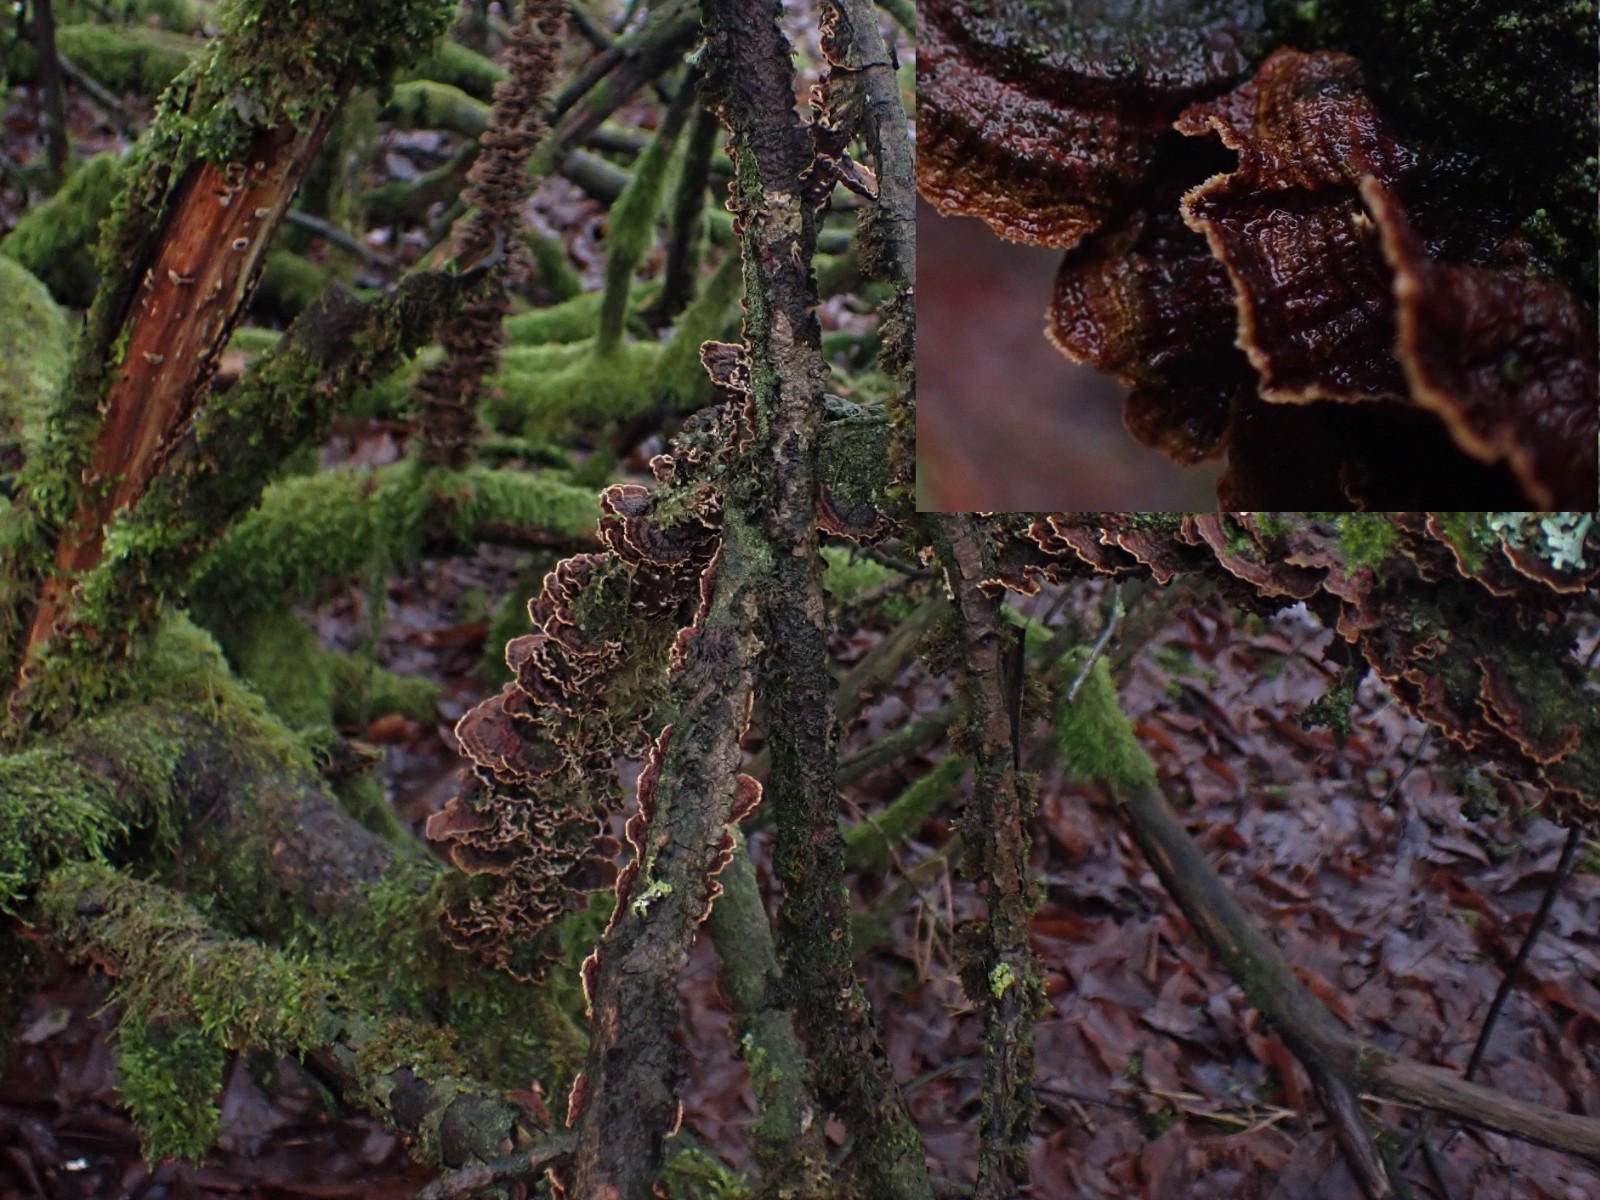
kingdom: Fungi
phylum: Basidiomycota
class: Agaricomycetes
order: Hymenochaetales
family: Hymenochaetaceae
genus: Hydnoporia
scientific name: Hydnoporia tabacina
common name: tobaksbrun ruslædersvamp
